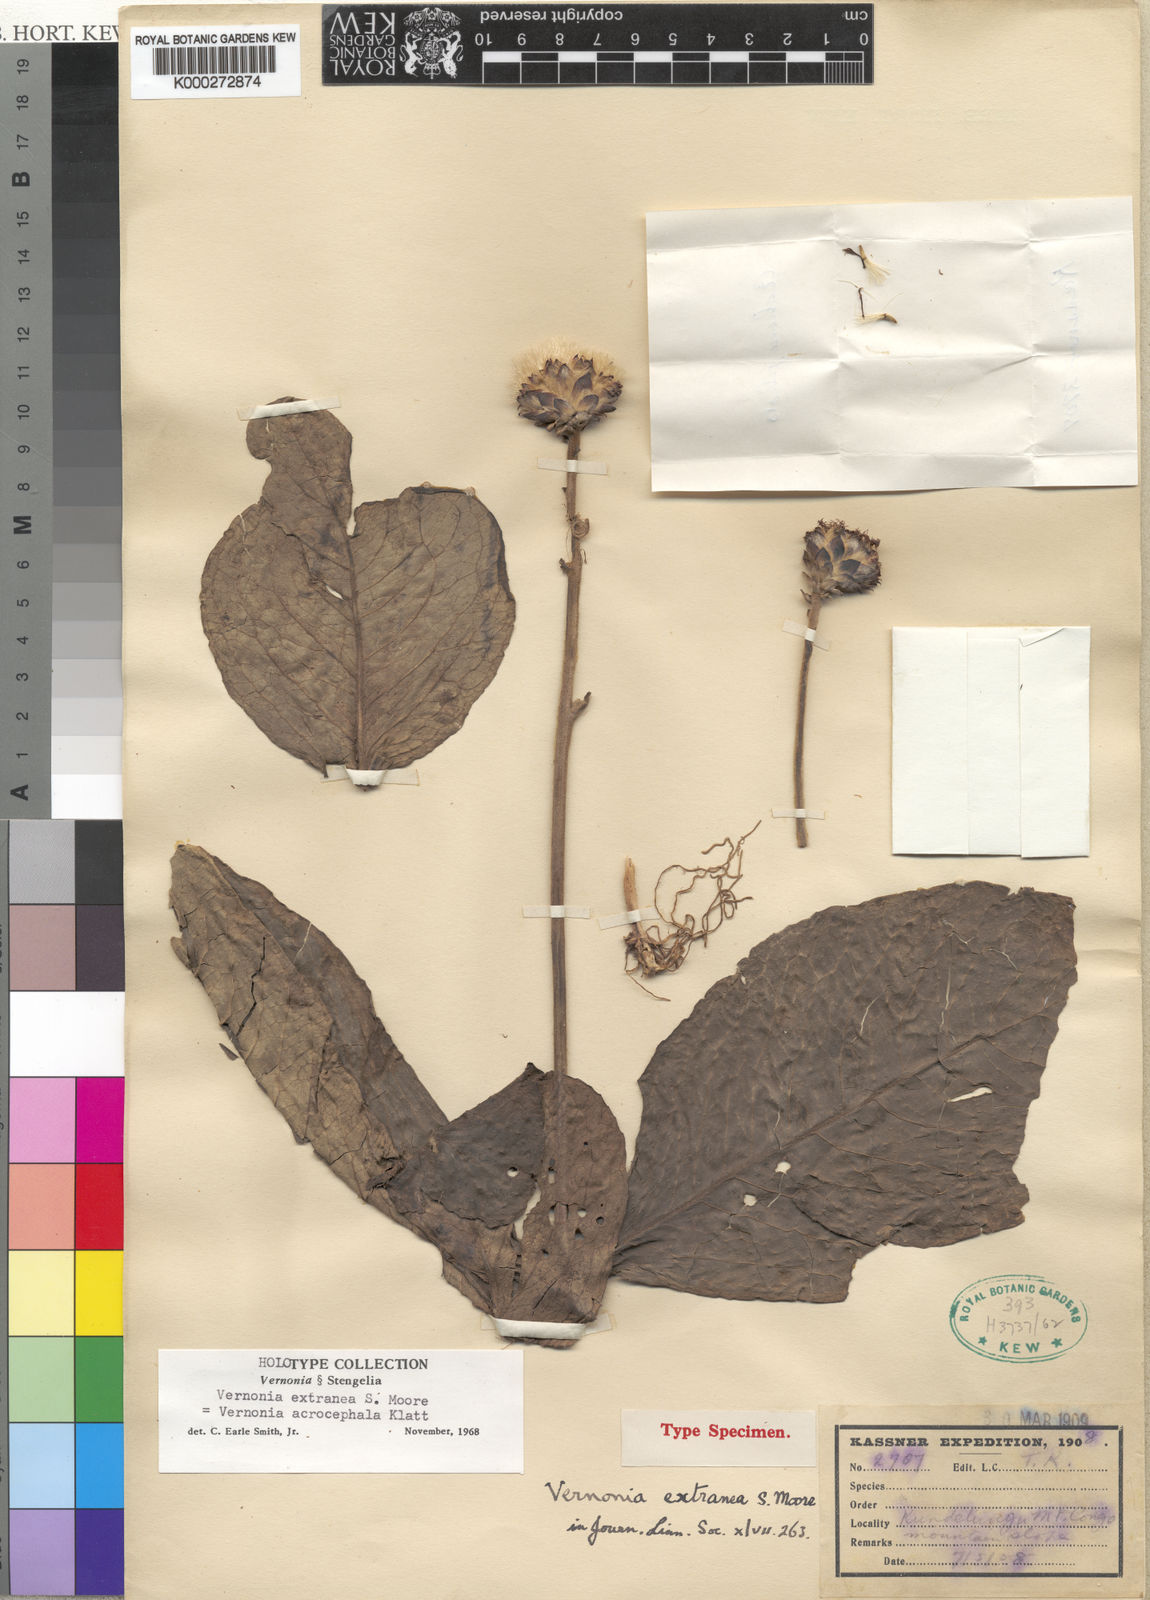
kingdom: Plantae
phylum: Tracheophyta
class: Magnoliopsida
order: Asterales
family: Asteraceae
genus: Vernonia
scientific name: Vernonia extranea
